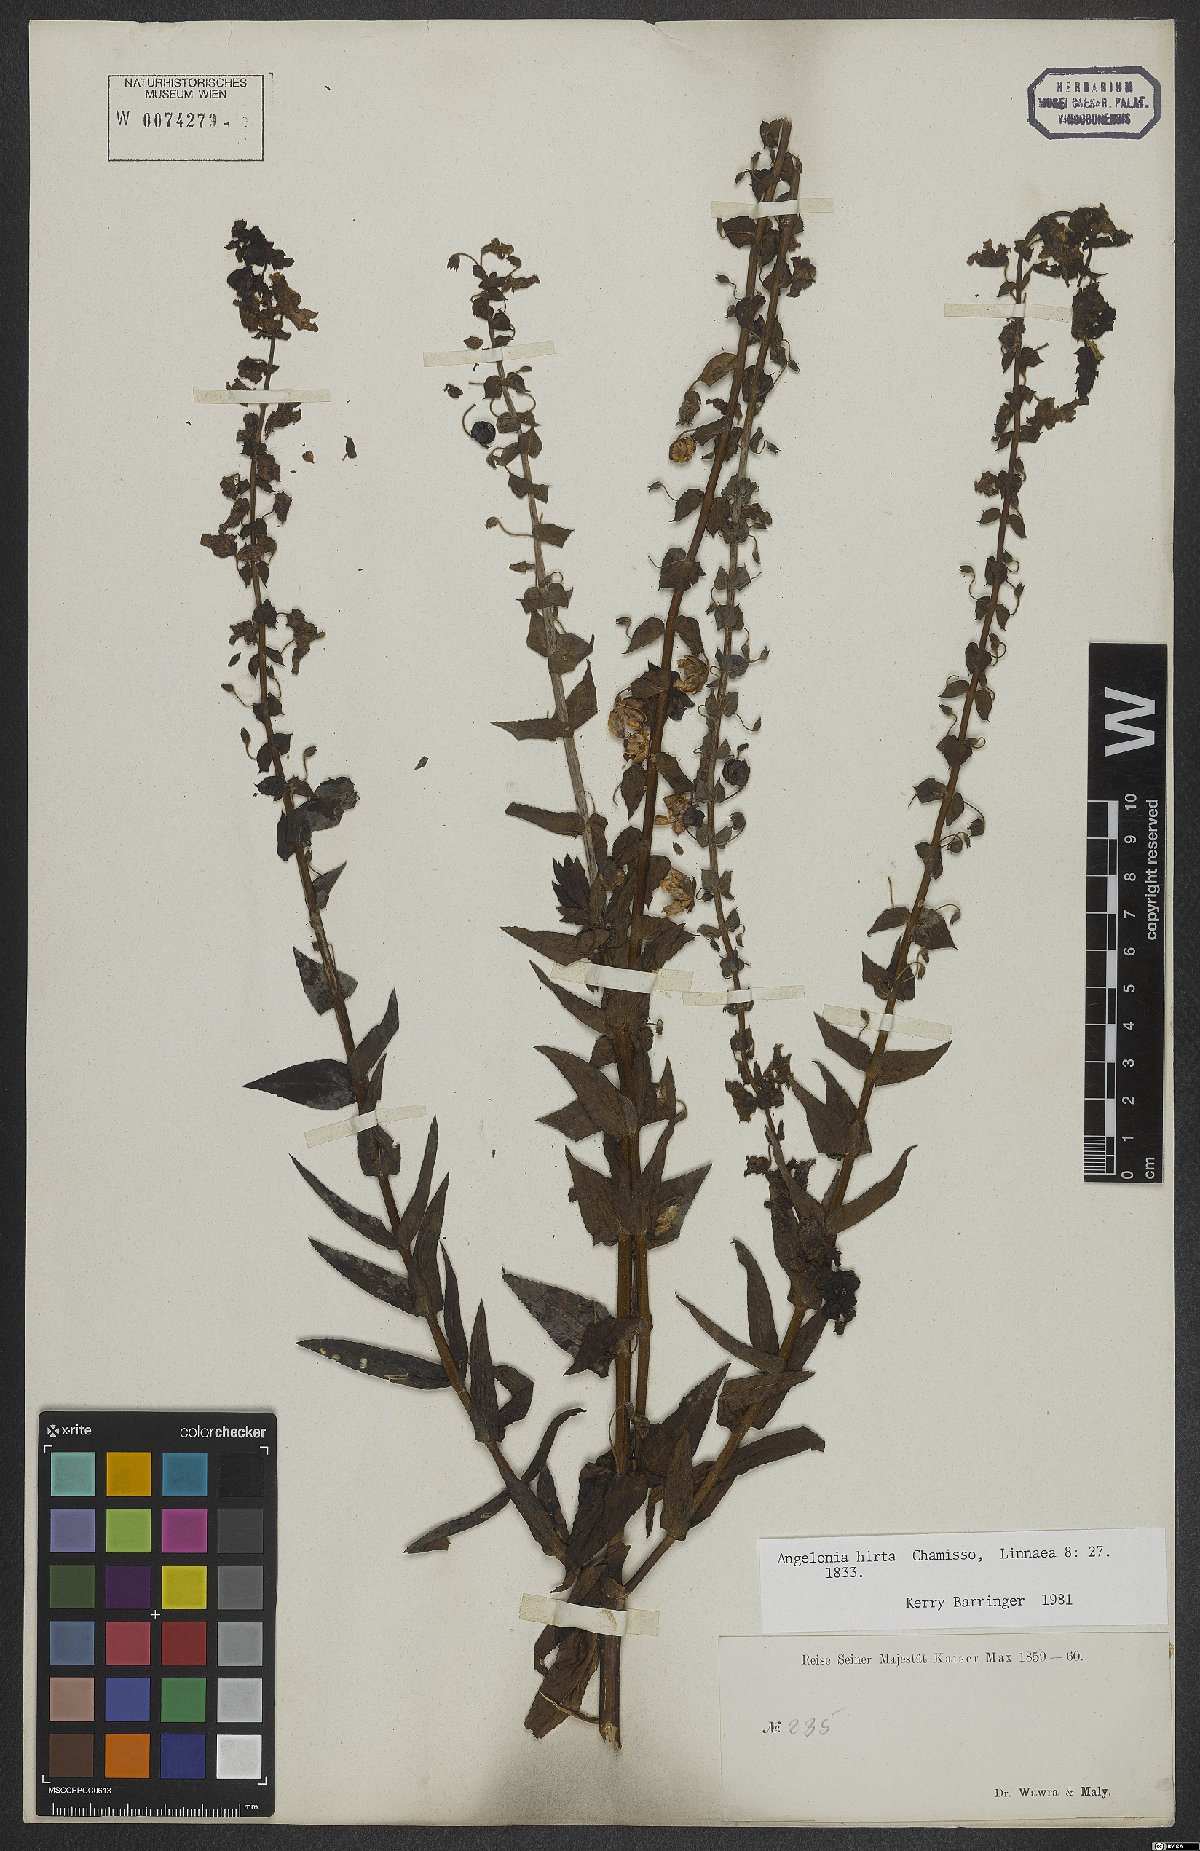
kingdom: Plantae
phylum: Tracheophyta
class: Magnoliopsida
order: Lamiales
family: Plantaginaceae
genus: Angelonia
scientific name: Angelonia salicariifolia
